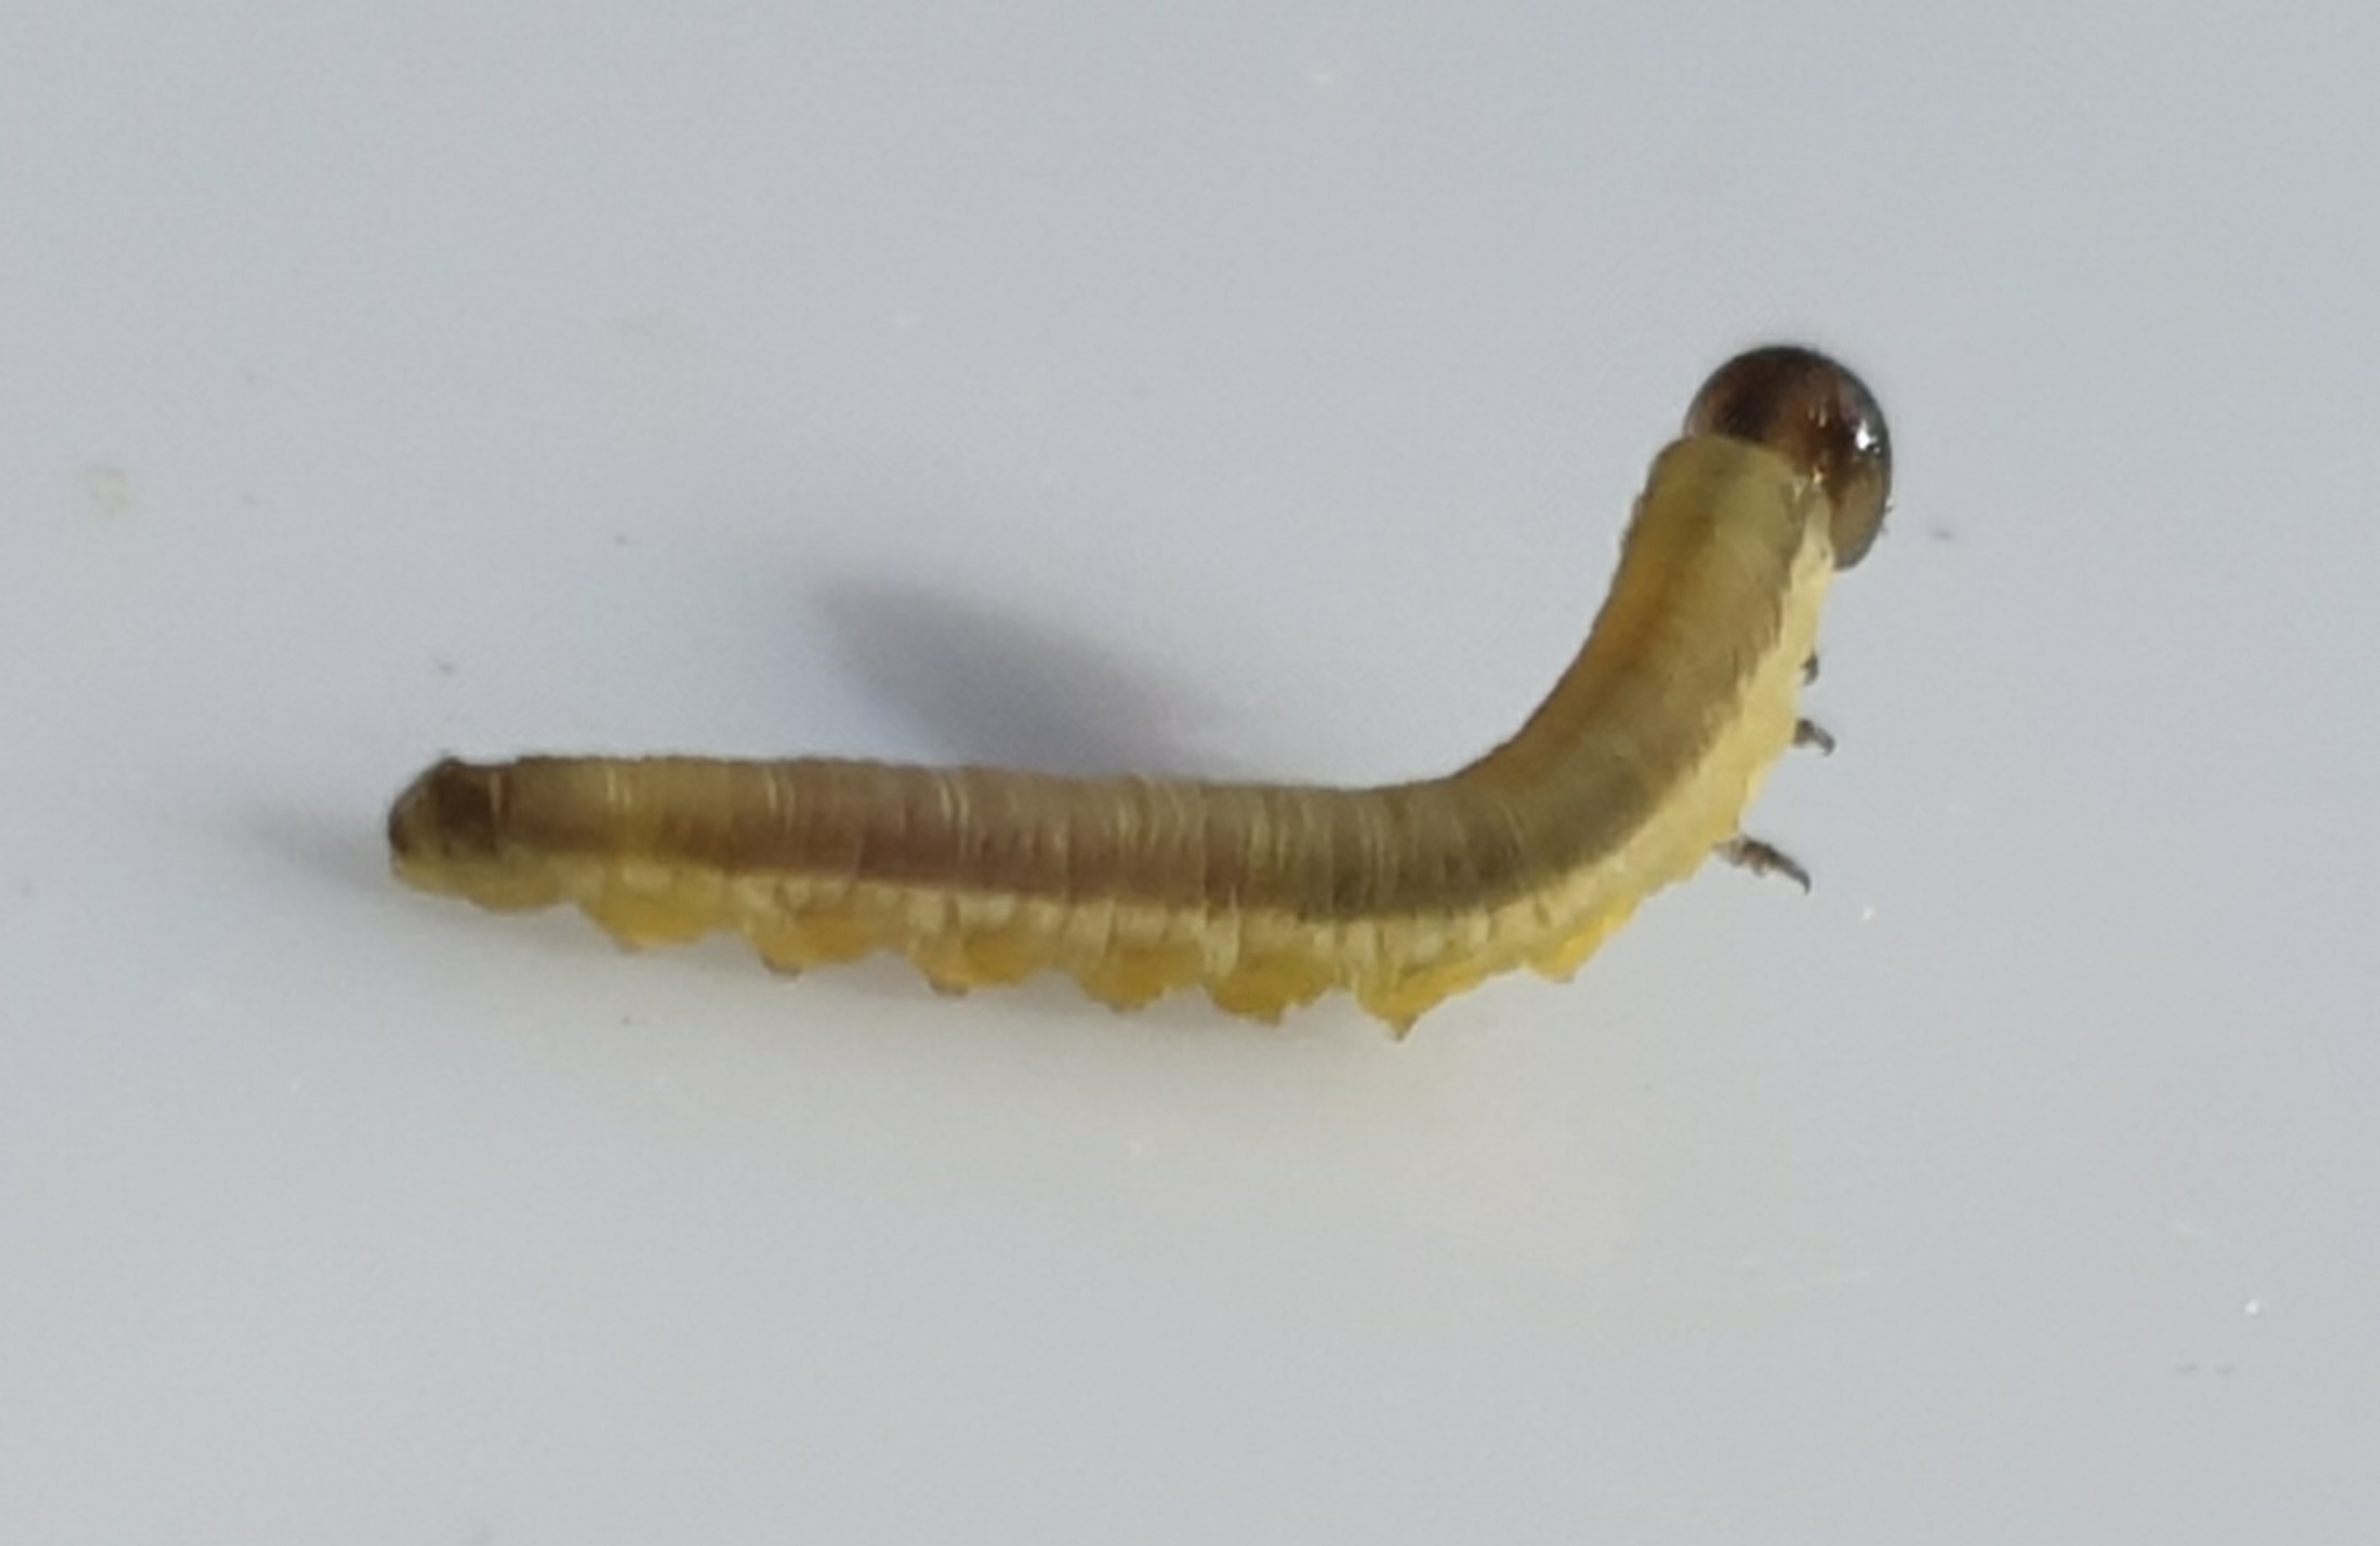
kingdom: Animalia
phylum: Arthropoda
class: Insecta
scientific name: Insecta
